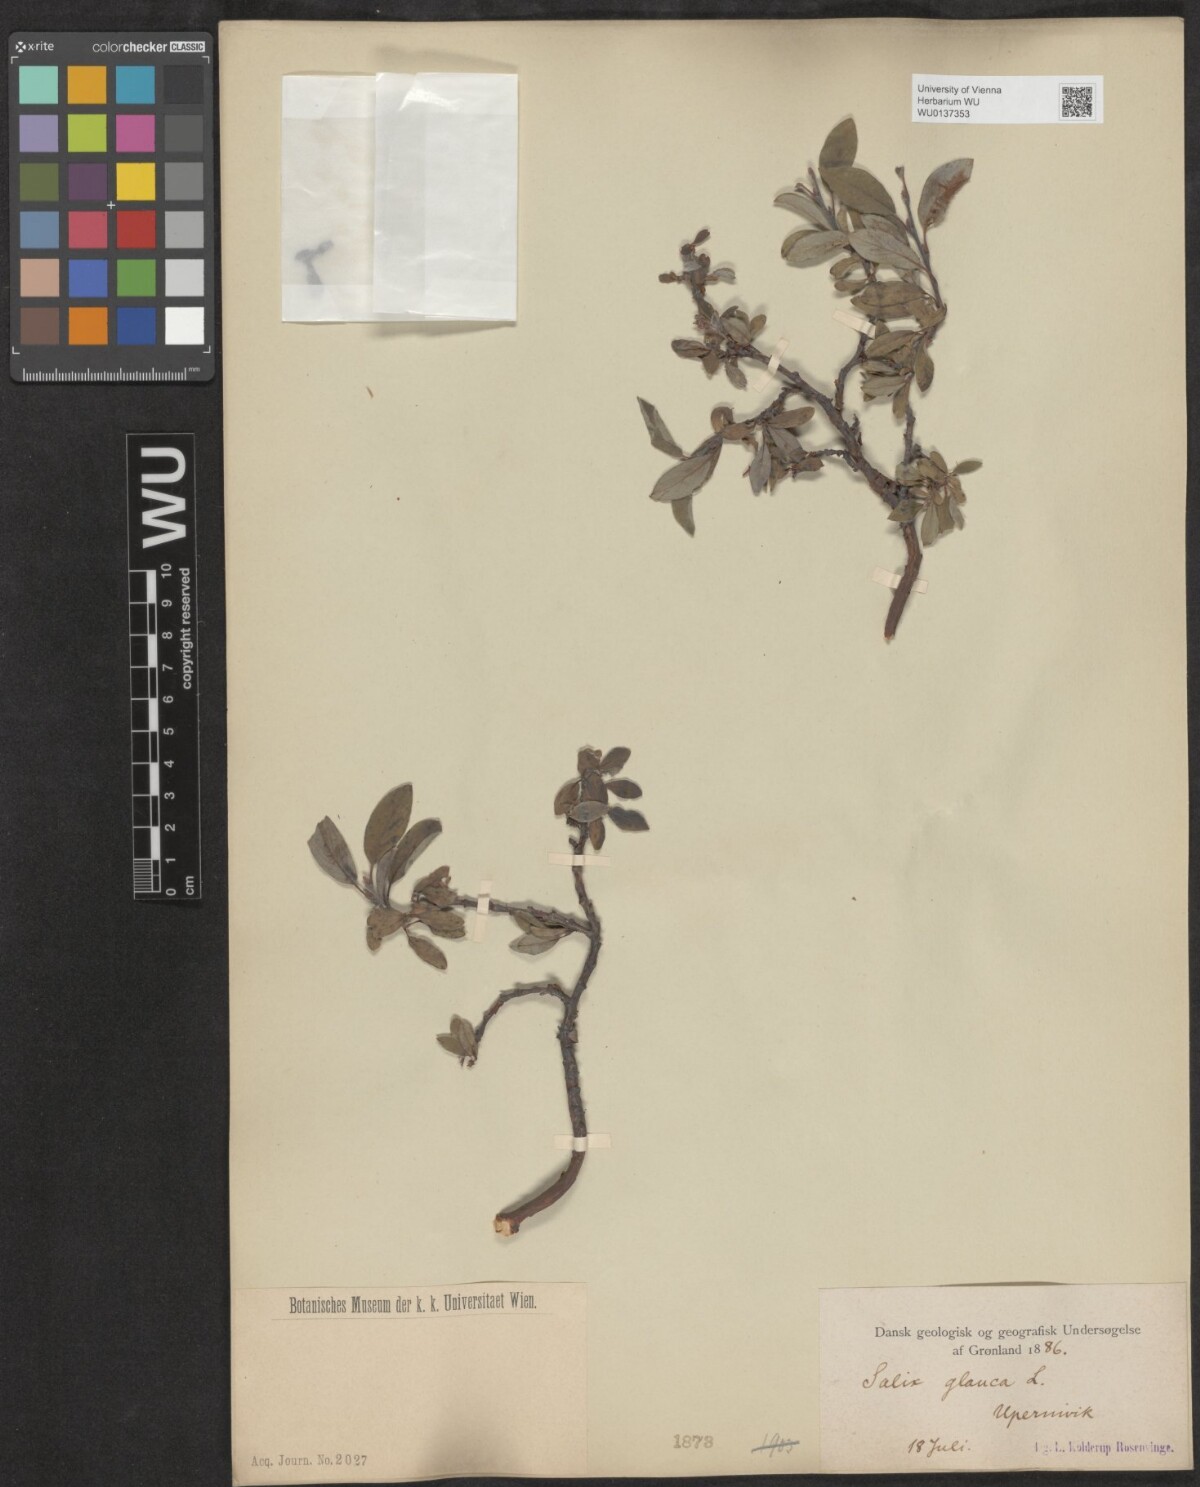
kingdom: Plantae
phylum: Tracheophyta
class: Magnoliopsida
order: Malpighiales
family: Salicaceae
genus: Salix
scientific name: Salix glauca
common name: Glaucous willow
